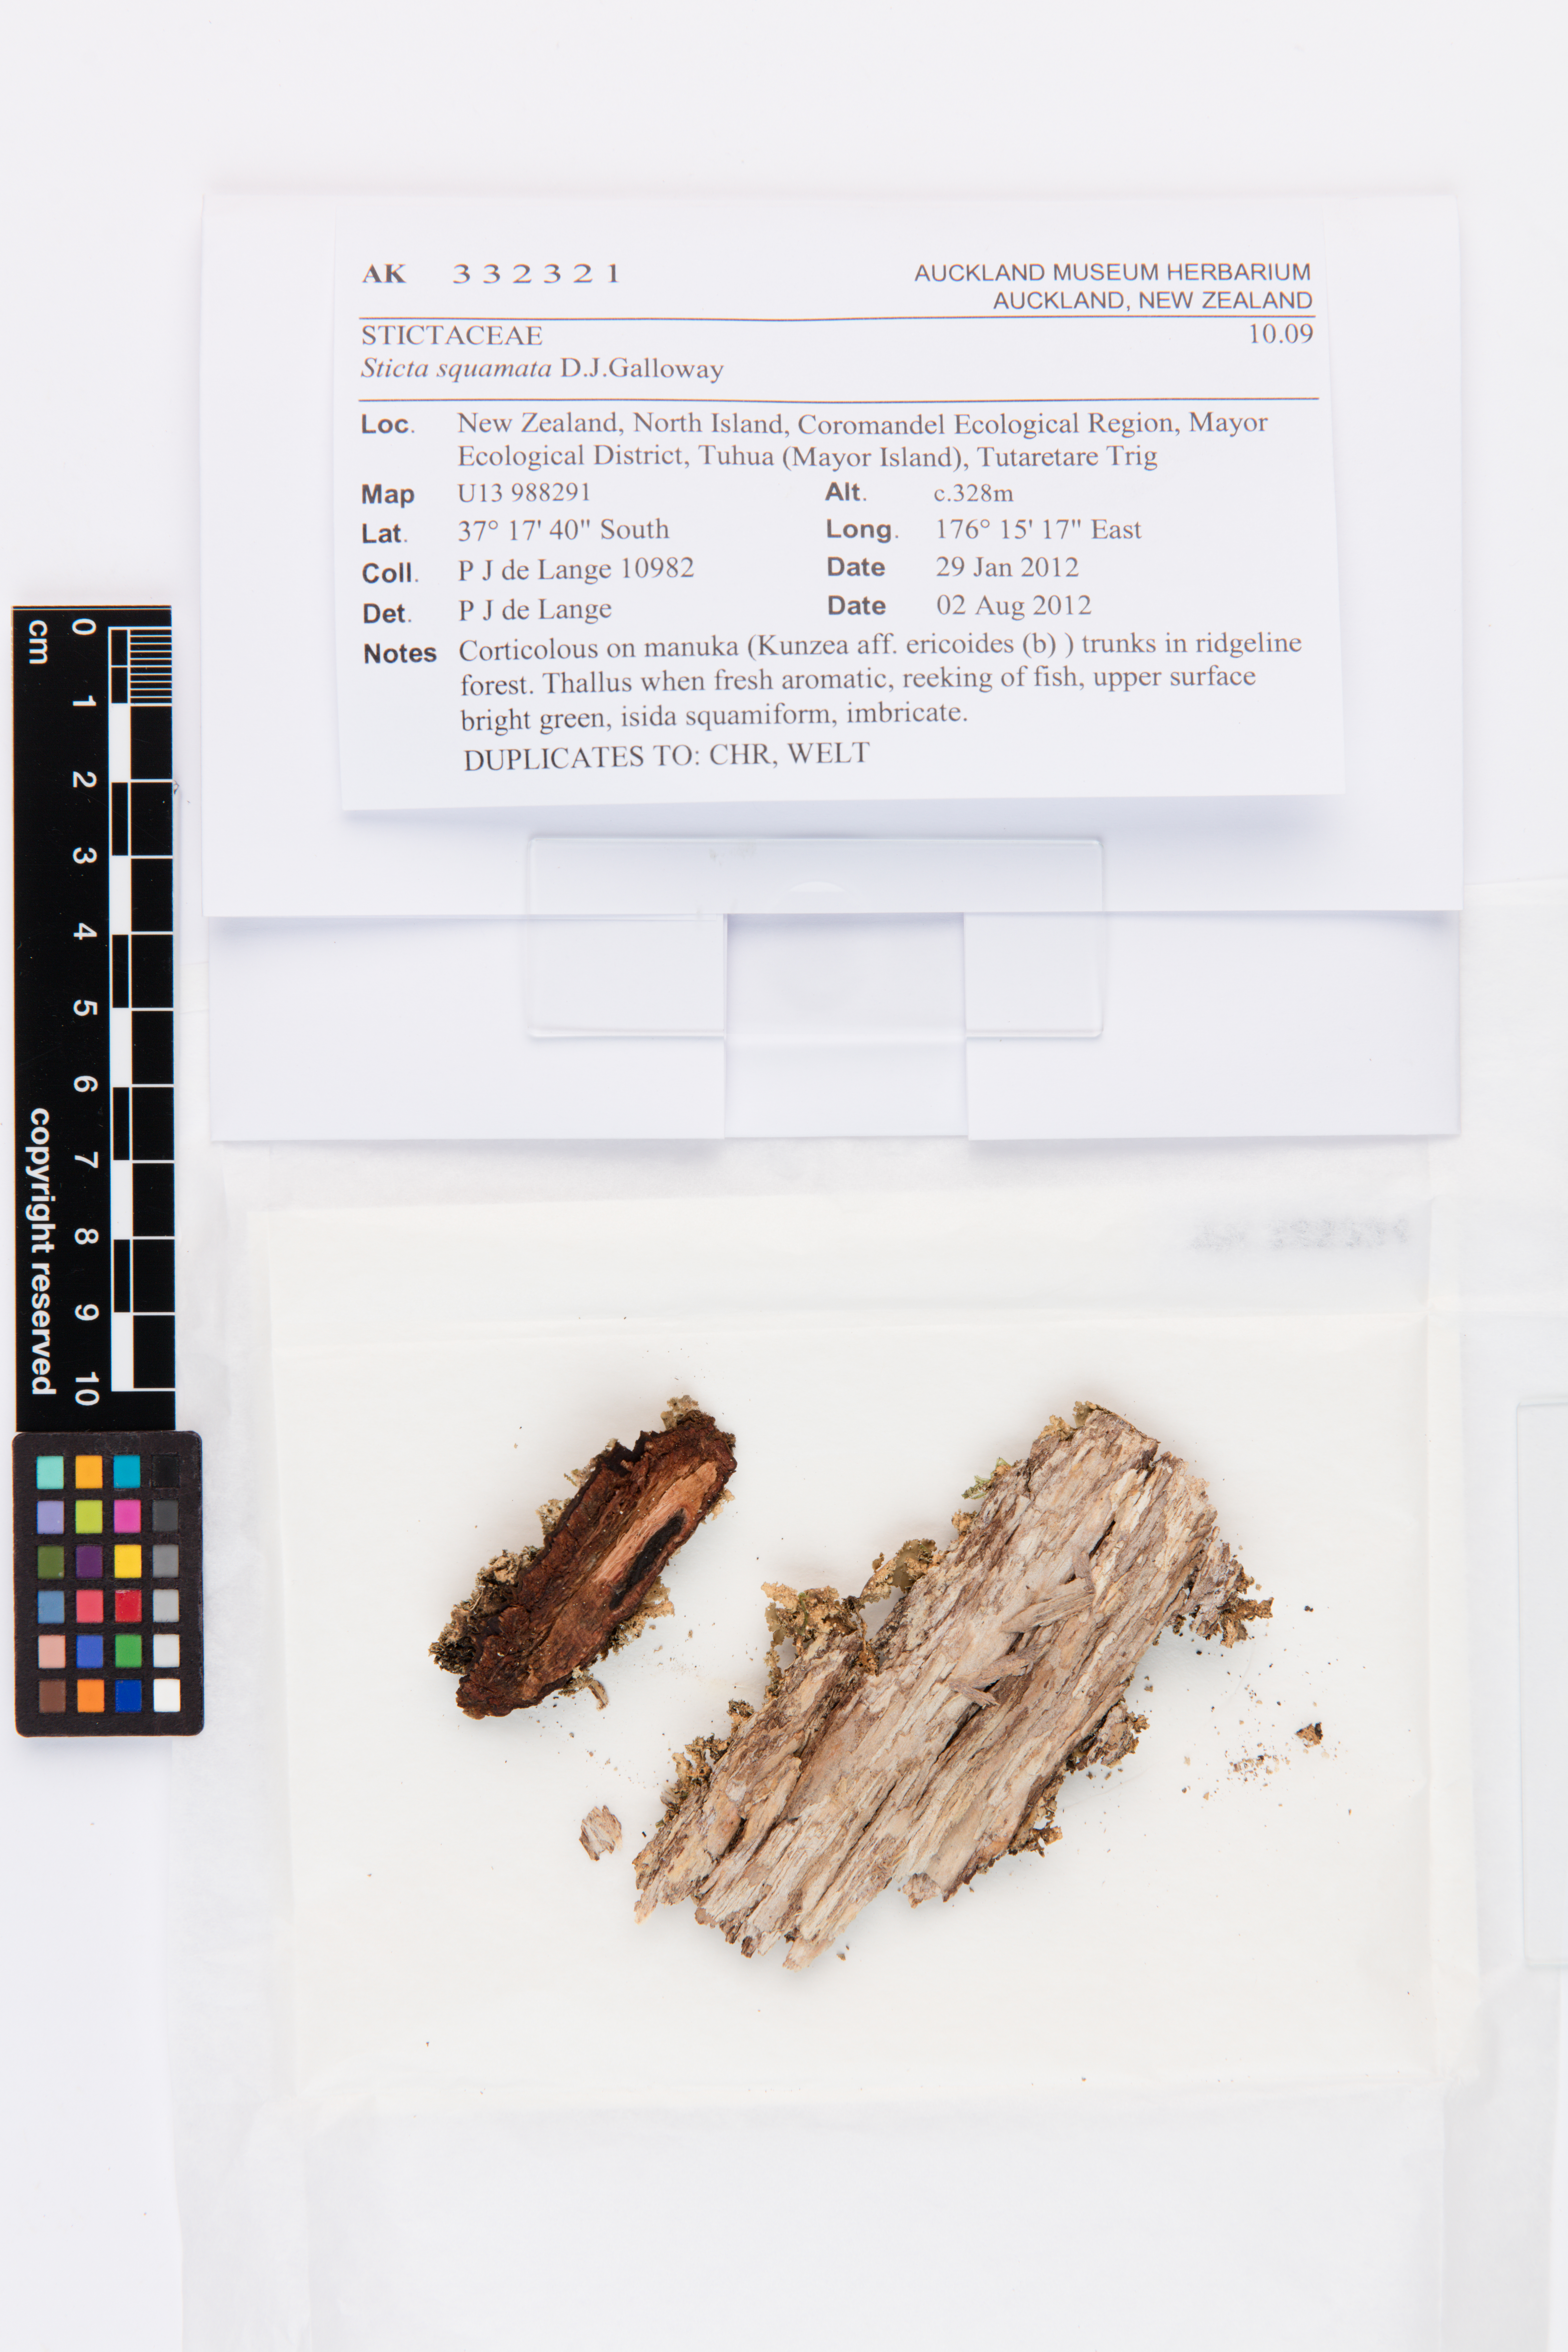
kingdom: Fungi
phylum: Ascomycota
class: Lecanoromycetes
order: Peltigerales
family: Lobariaceae
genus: Sticta
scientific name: Sticta squamata
